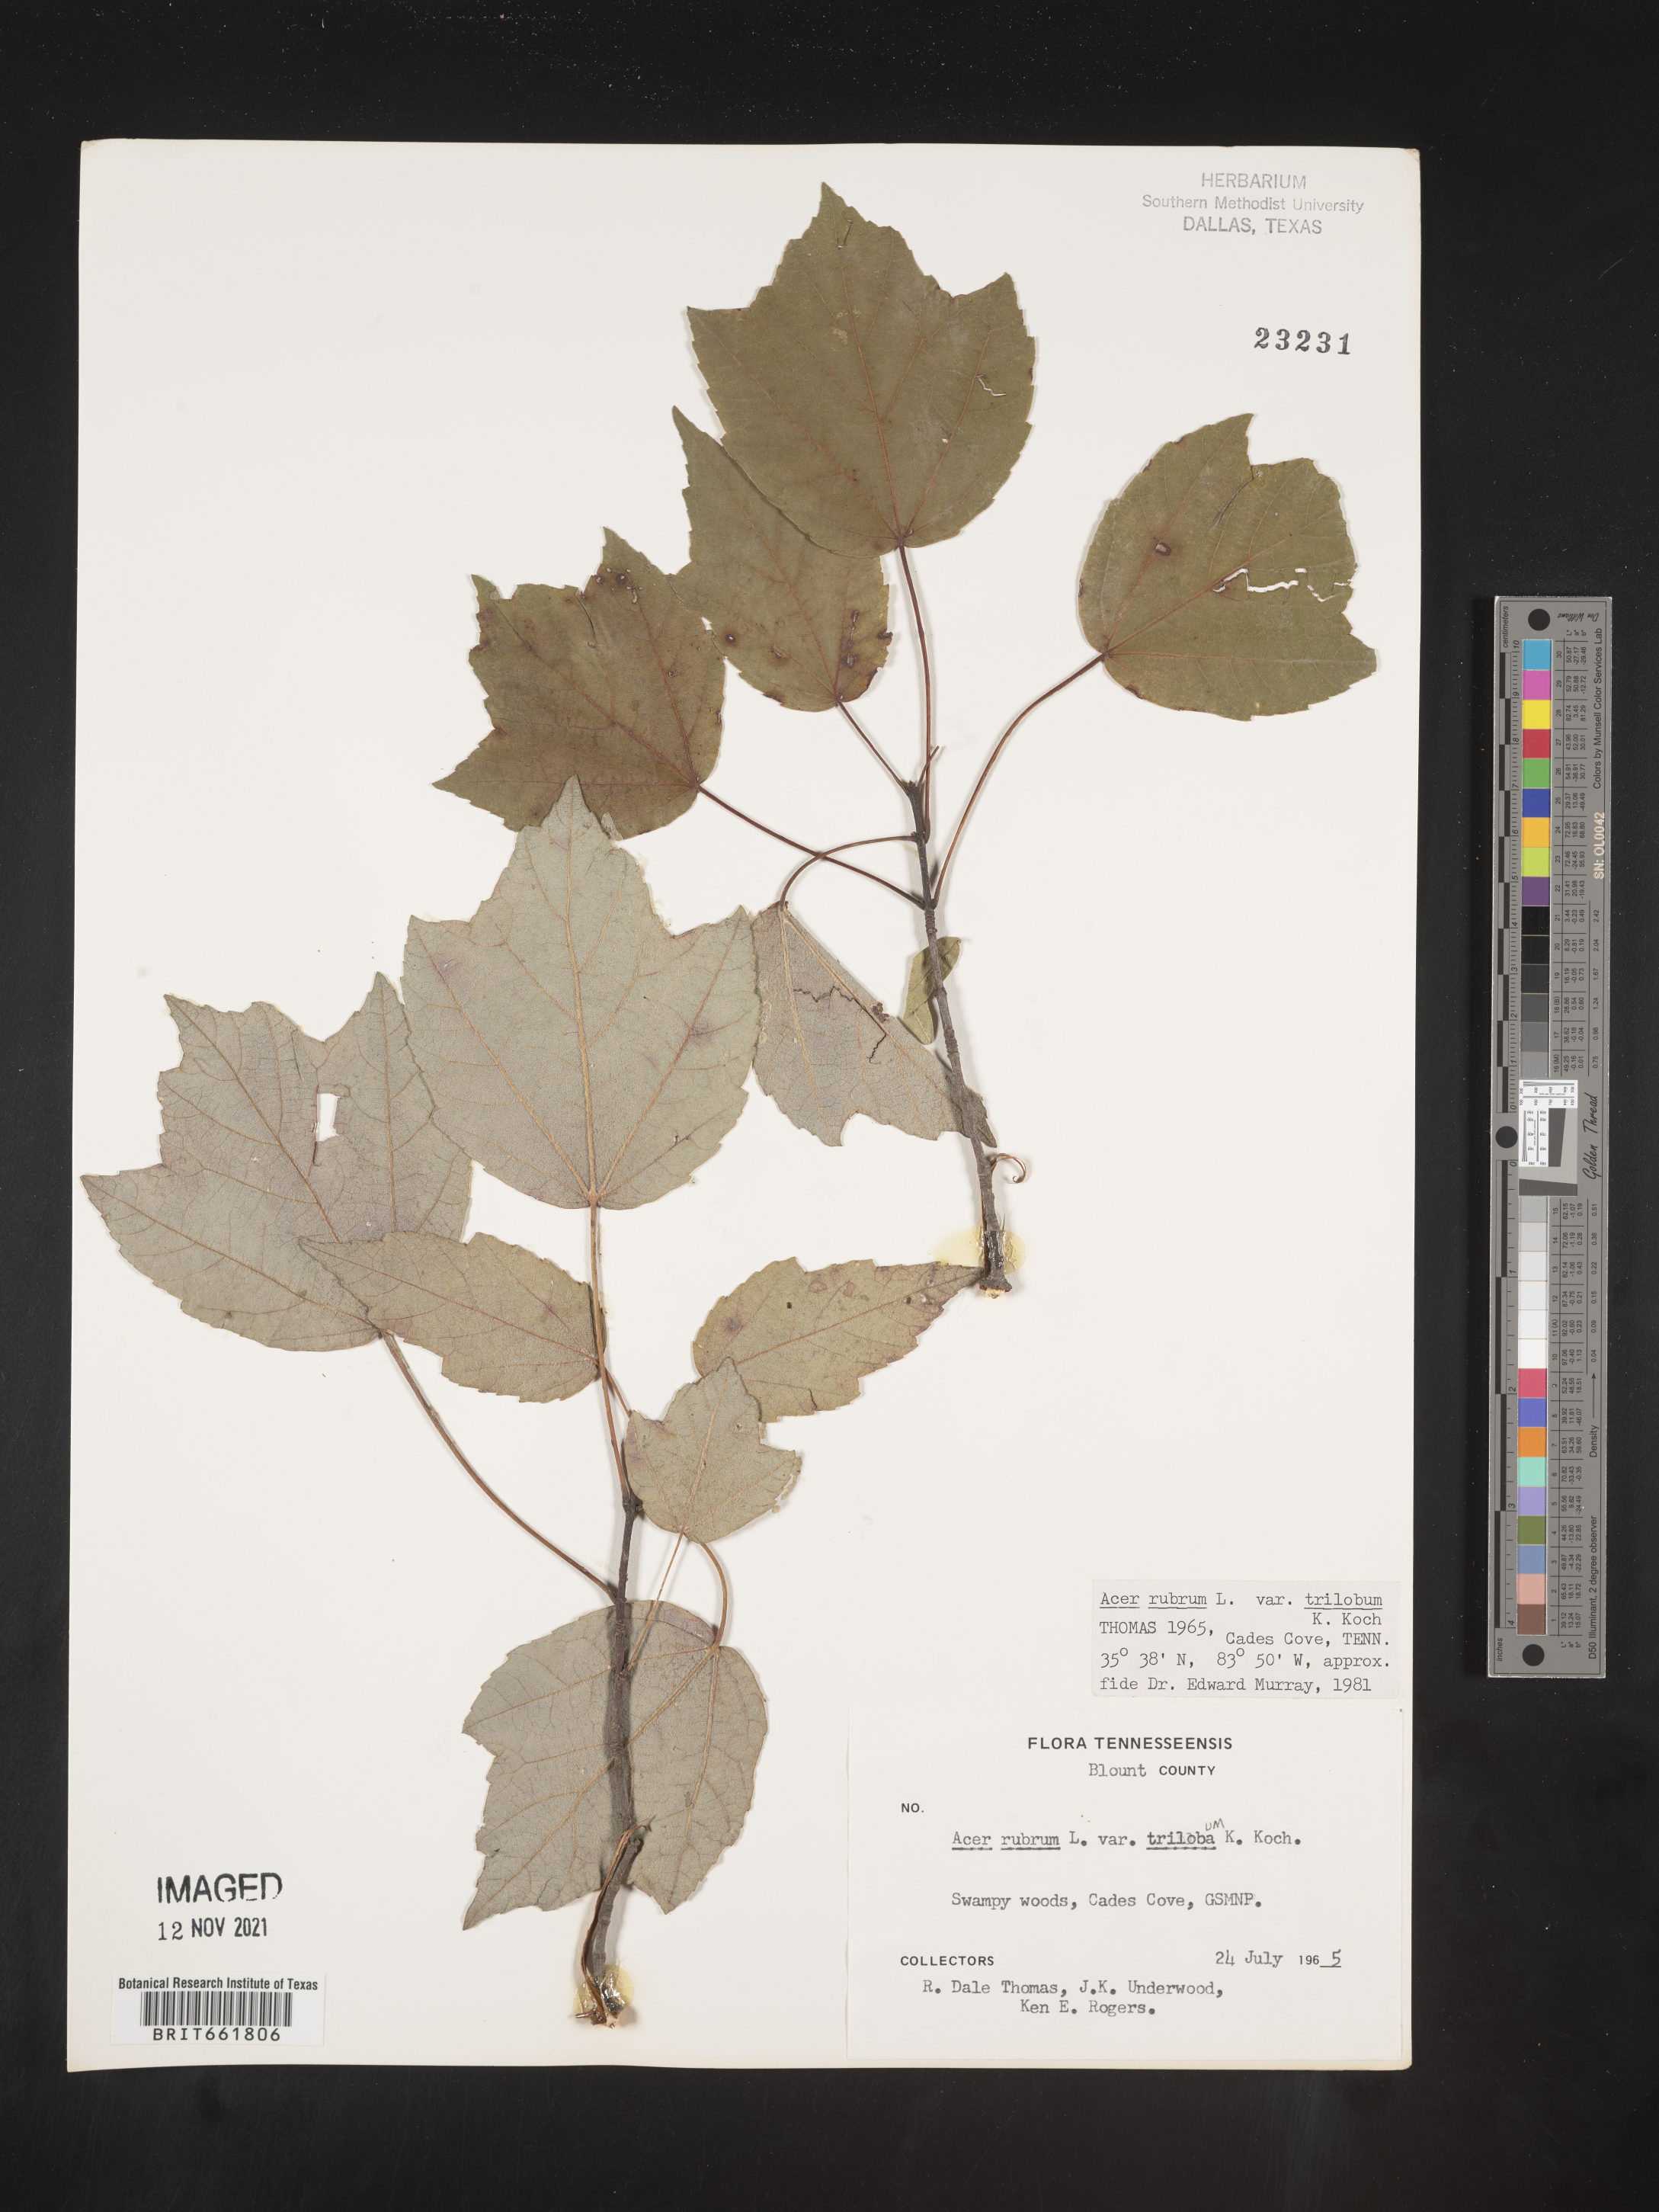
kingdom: Plantae
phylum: Tracheophyta
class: Magnoliopsida
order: Sapindales
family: Sapindaceae
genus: Acer
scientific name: Acer rubrum
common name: Red maple
